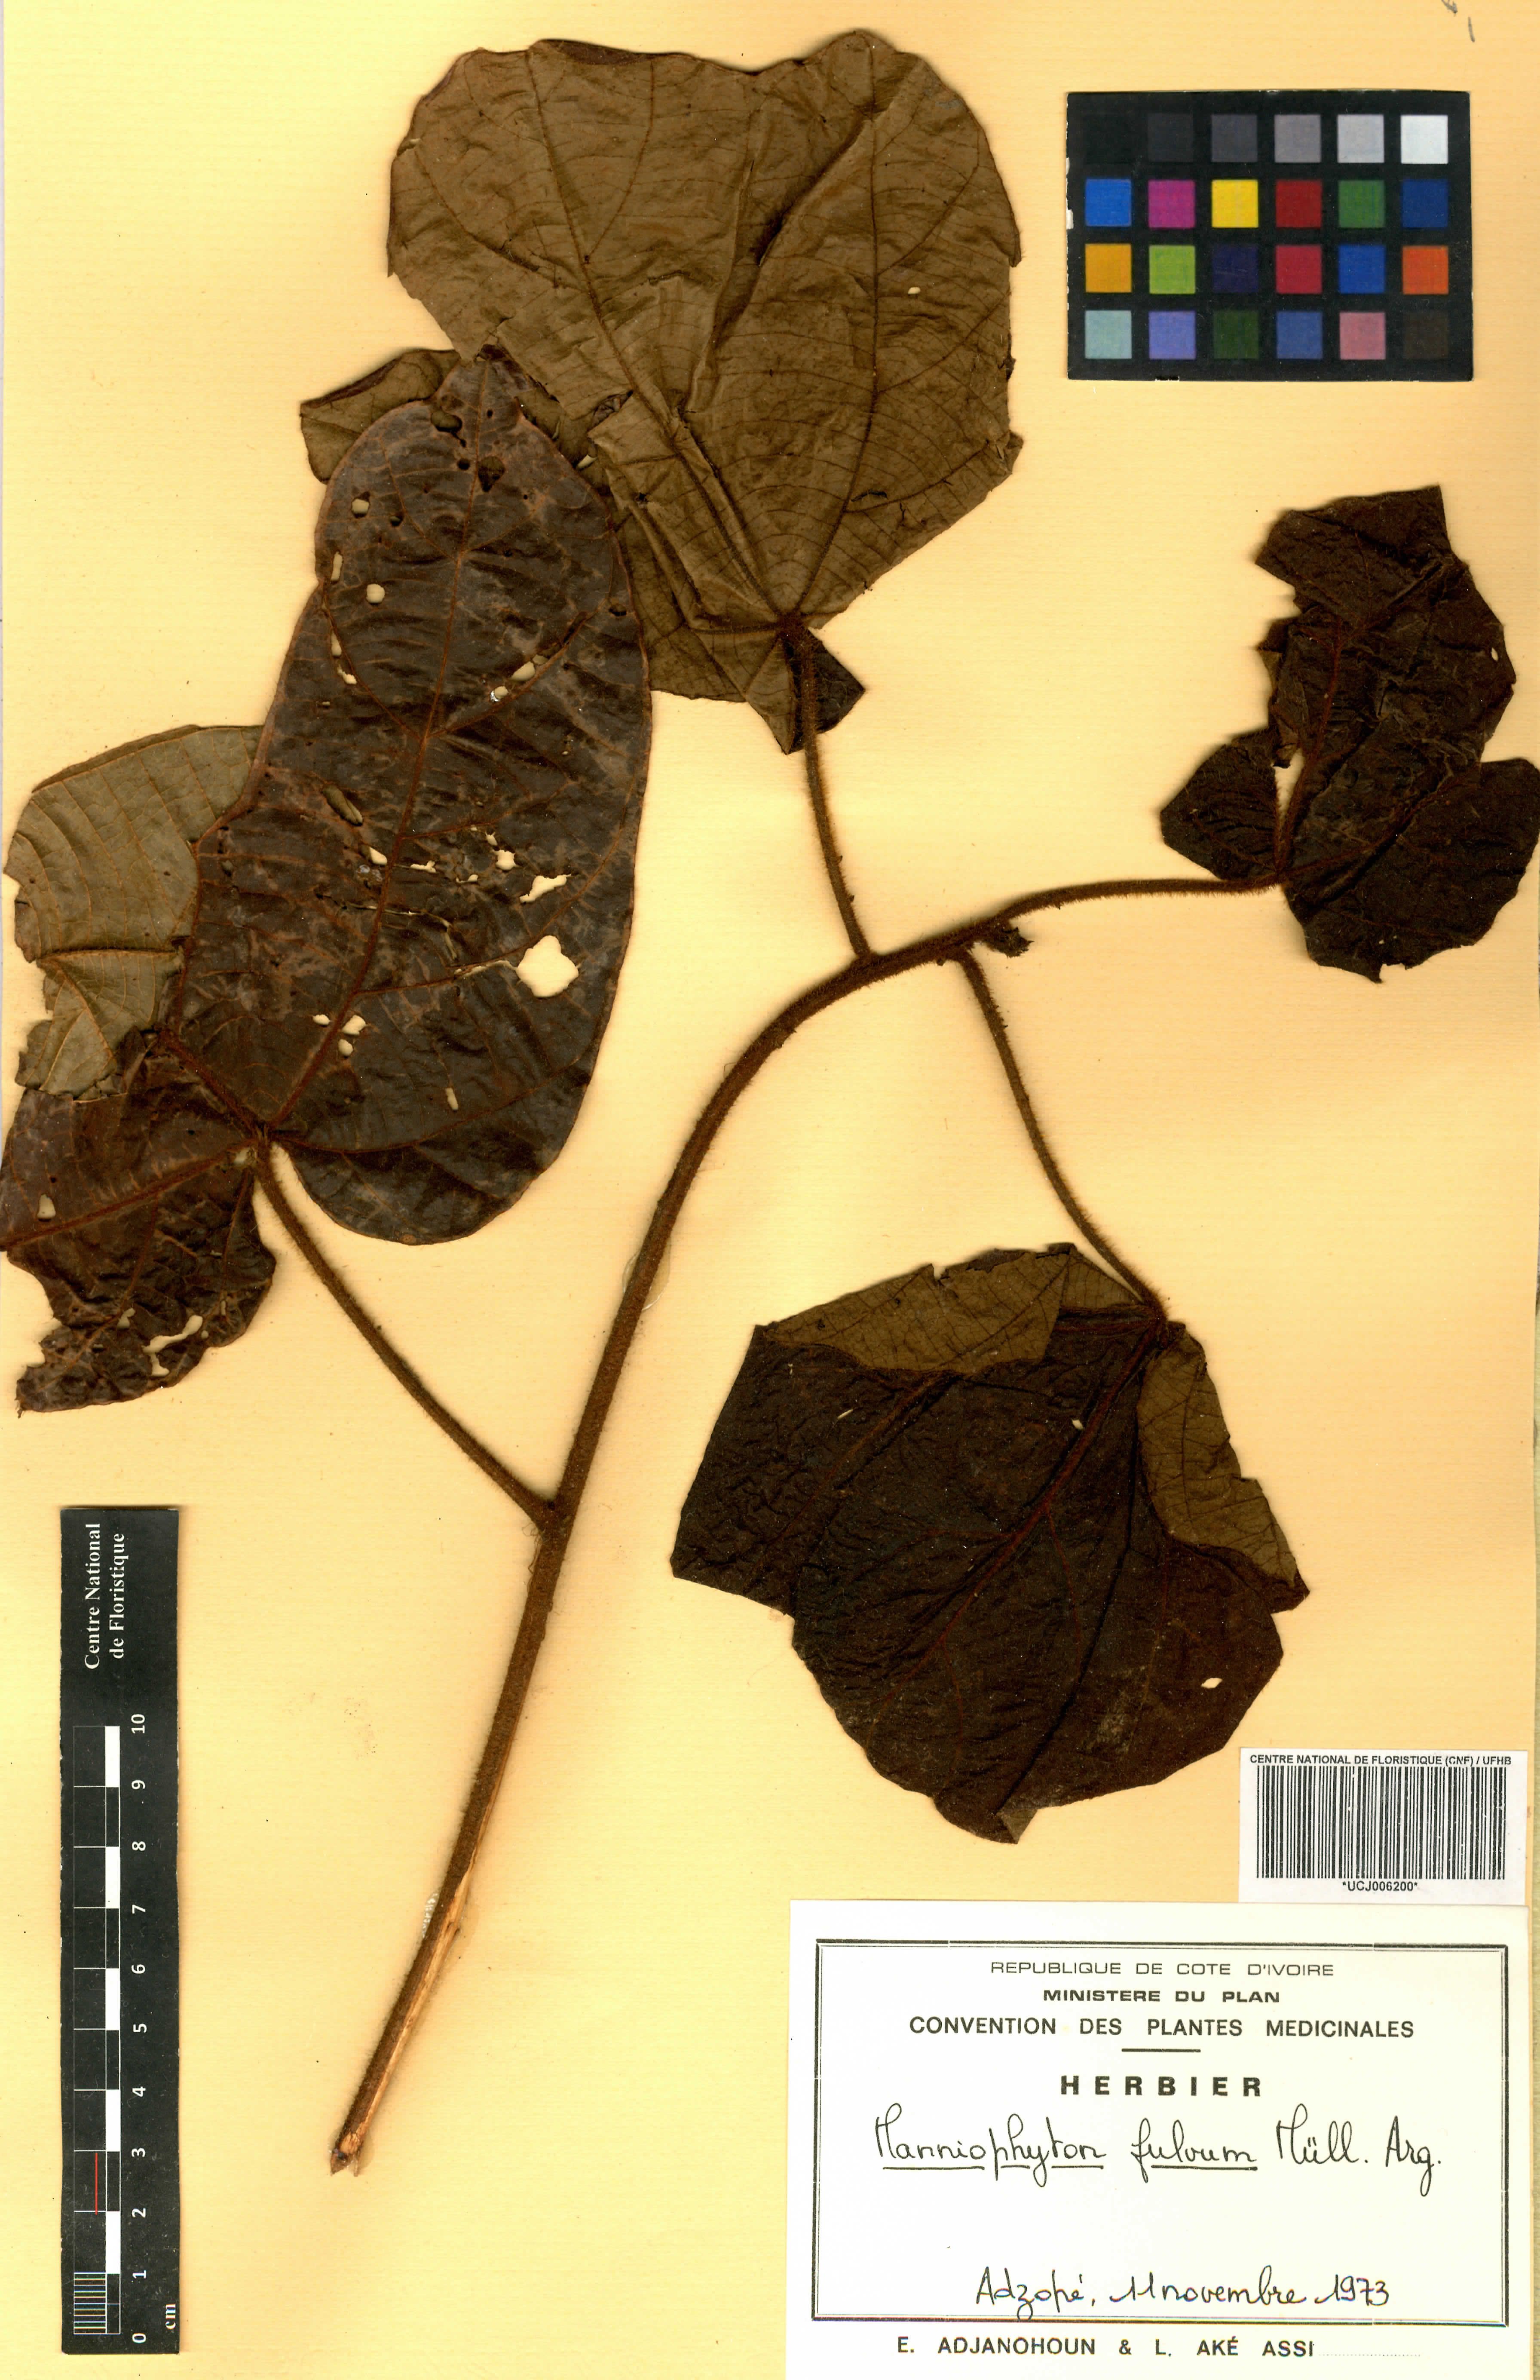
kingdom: Plantae
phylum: Tracheophyta
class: Magnoliopsida
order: Malpighiales
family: Euphorbiaceae
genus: Manniophyton
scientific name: Manniophyton fulvum
